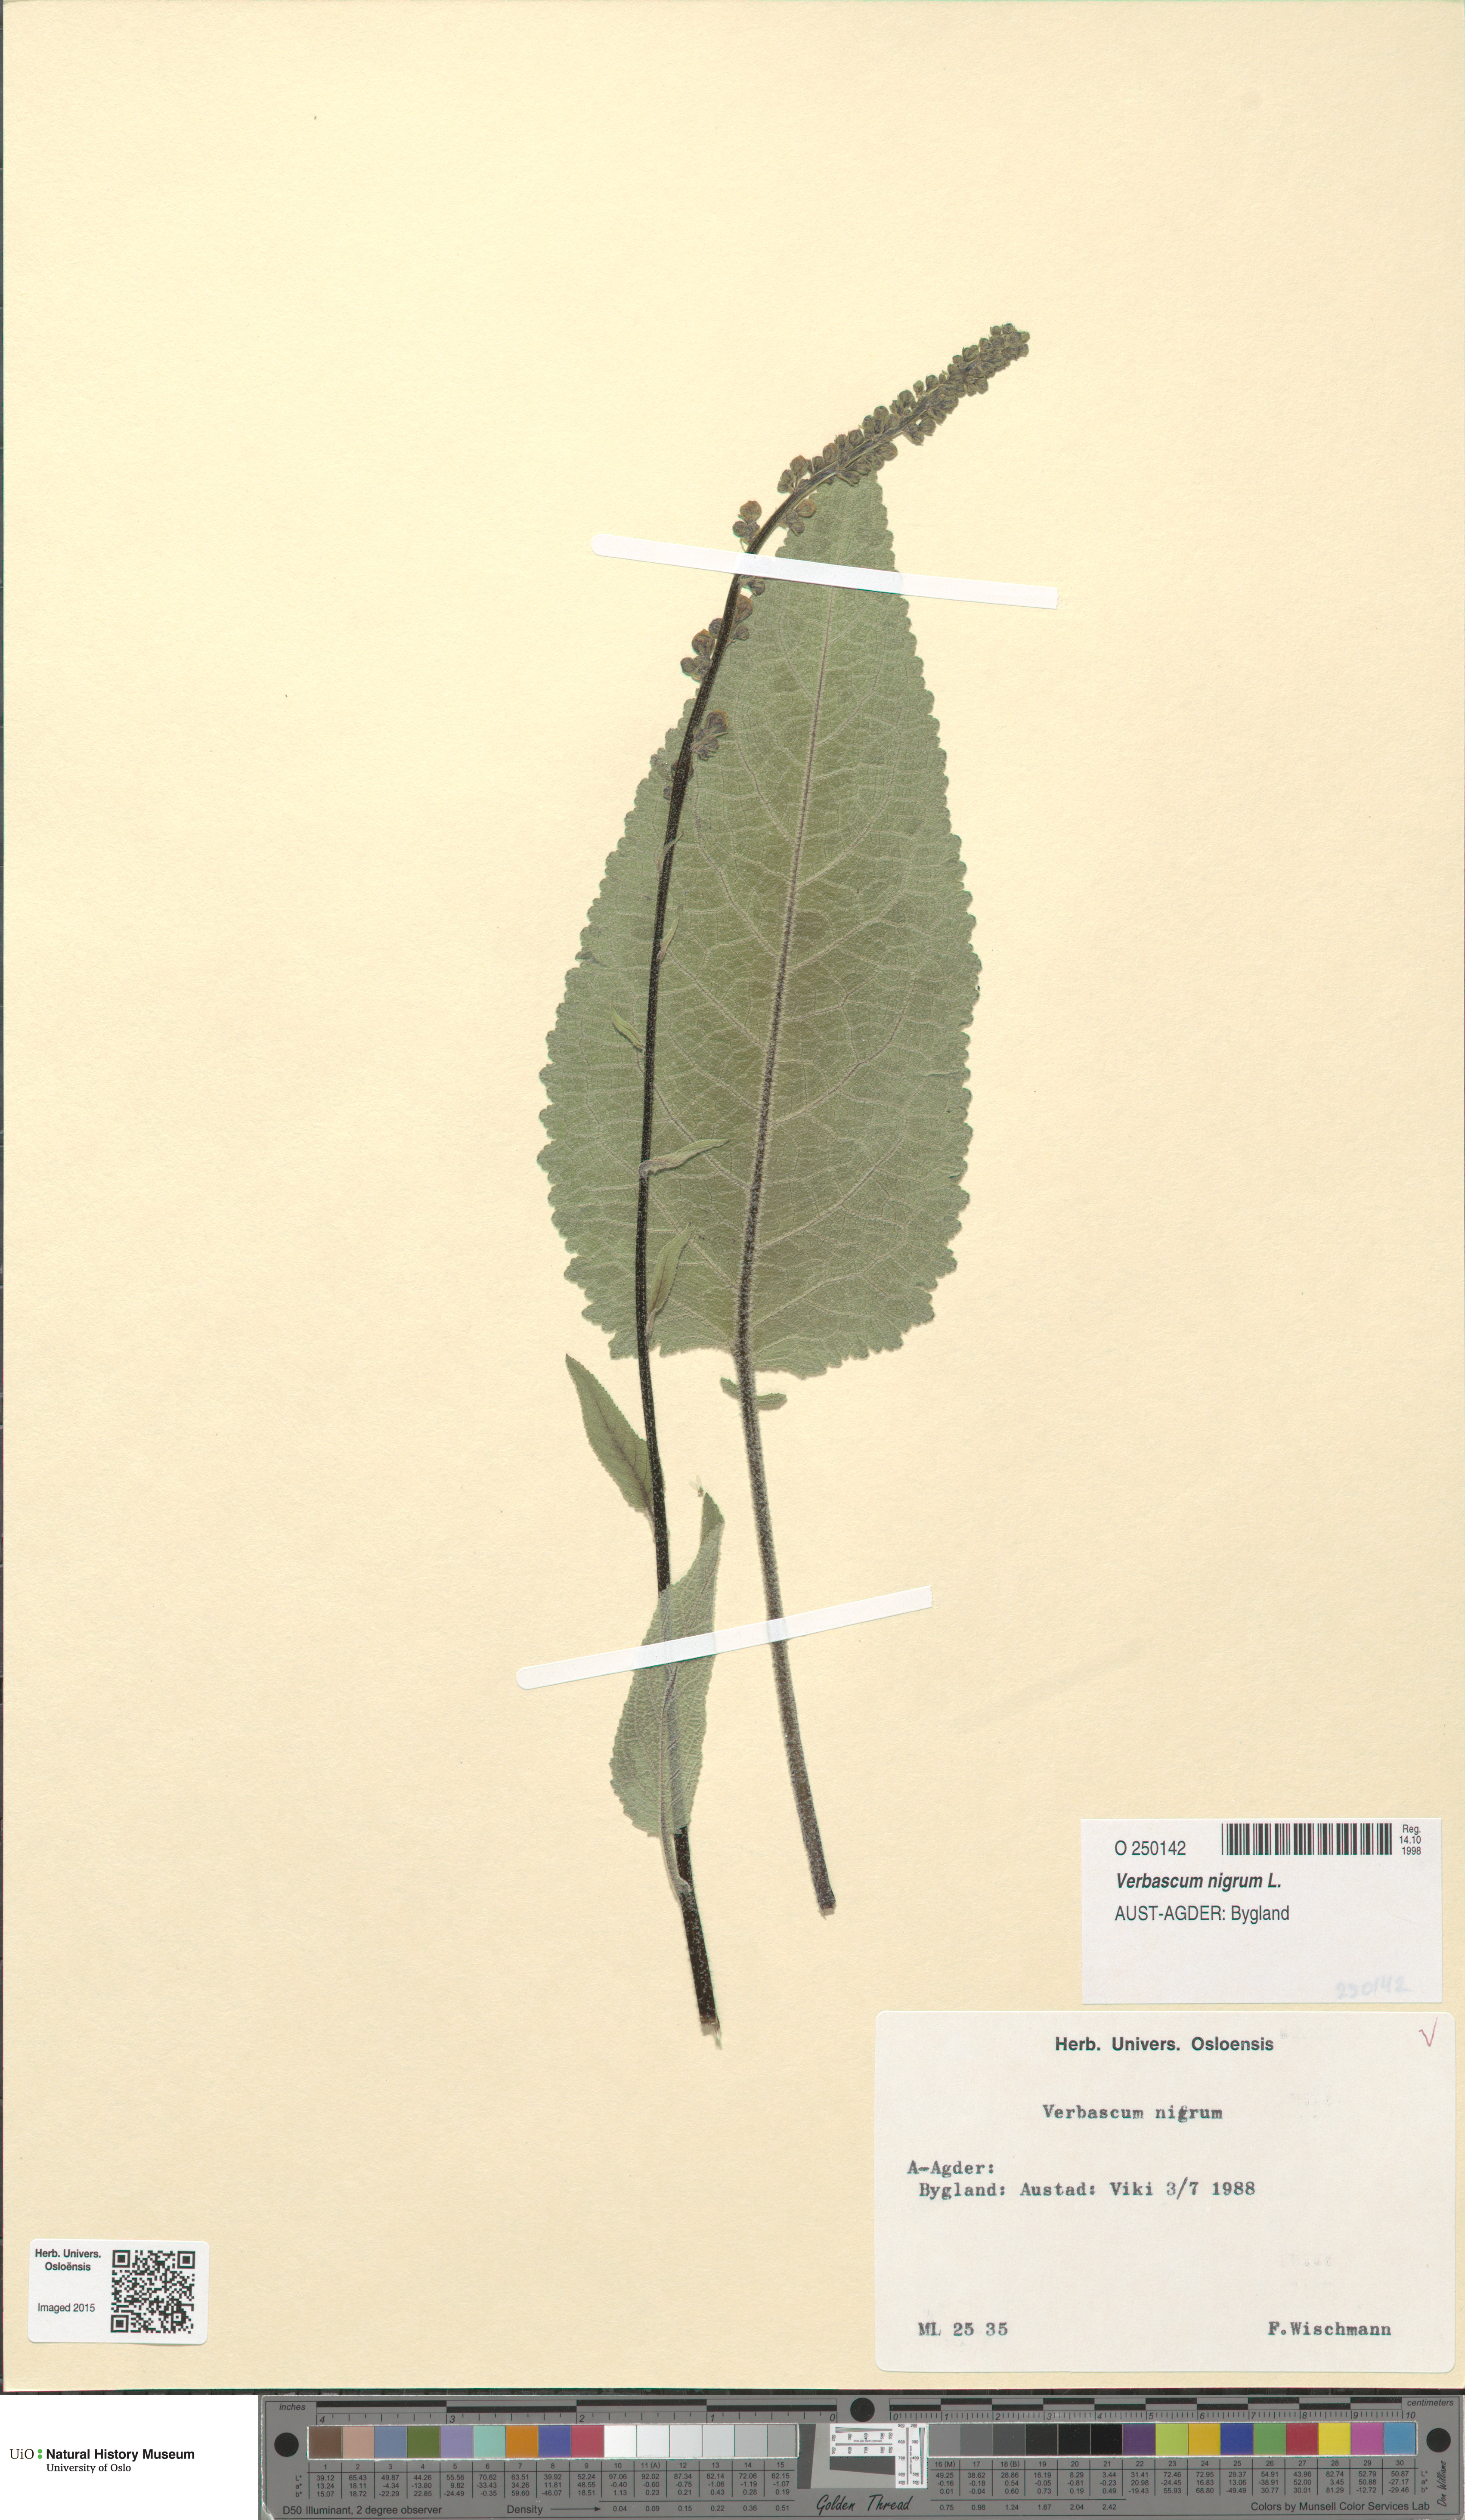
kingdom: Plantae
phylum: Tracheophyta
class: Magnoliopsida
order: Lamiales
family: Scrophulariaceae
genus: Verbascum
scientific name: Verbascum nigrum
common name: Dark mullein
